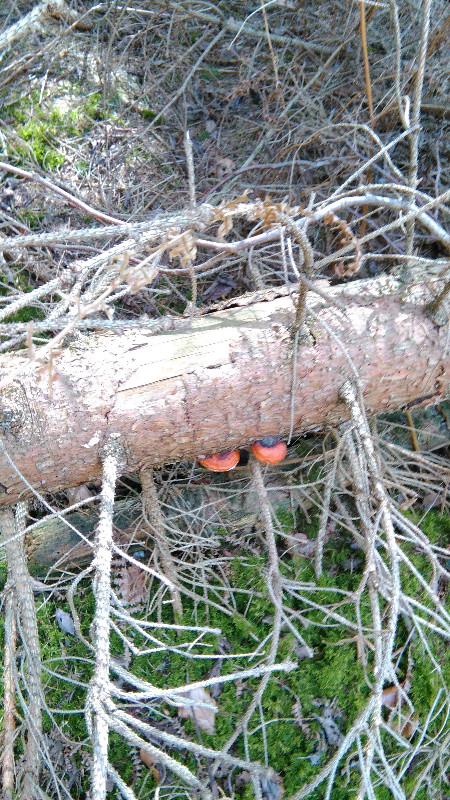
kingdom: Fungi
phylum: Basidiomycota
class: Agaricomycetes
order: Polyporales
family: Fomitopsidaceae
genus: Fomitopsis
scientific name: Fomitopsis pinicola
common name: randbæltet hovporesvamp
